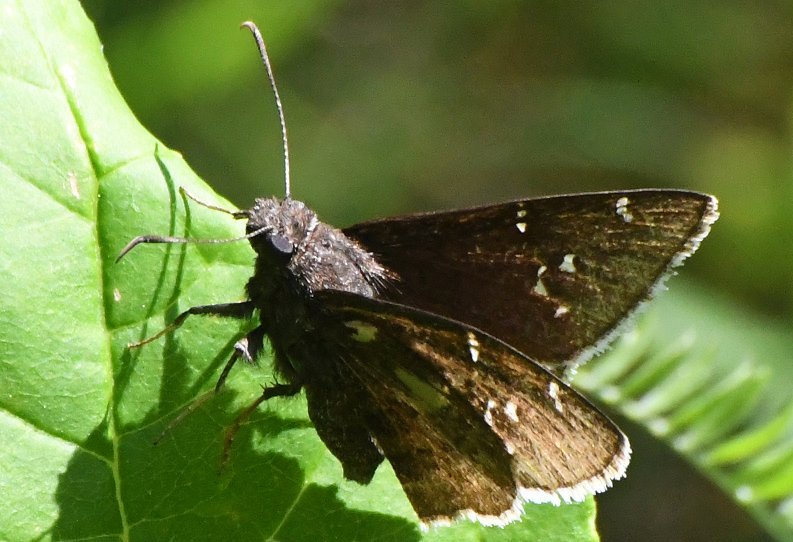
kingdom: Animalia
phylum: Arthropoda
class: Insecta
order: Lepidoptera
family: Hesperiidae
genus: Autochton
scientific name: Autochton
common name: Northern Cloudywing
